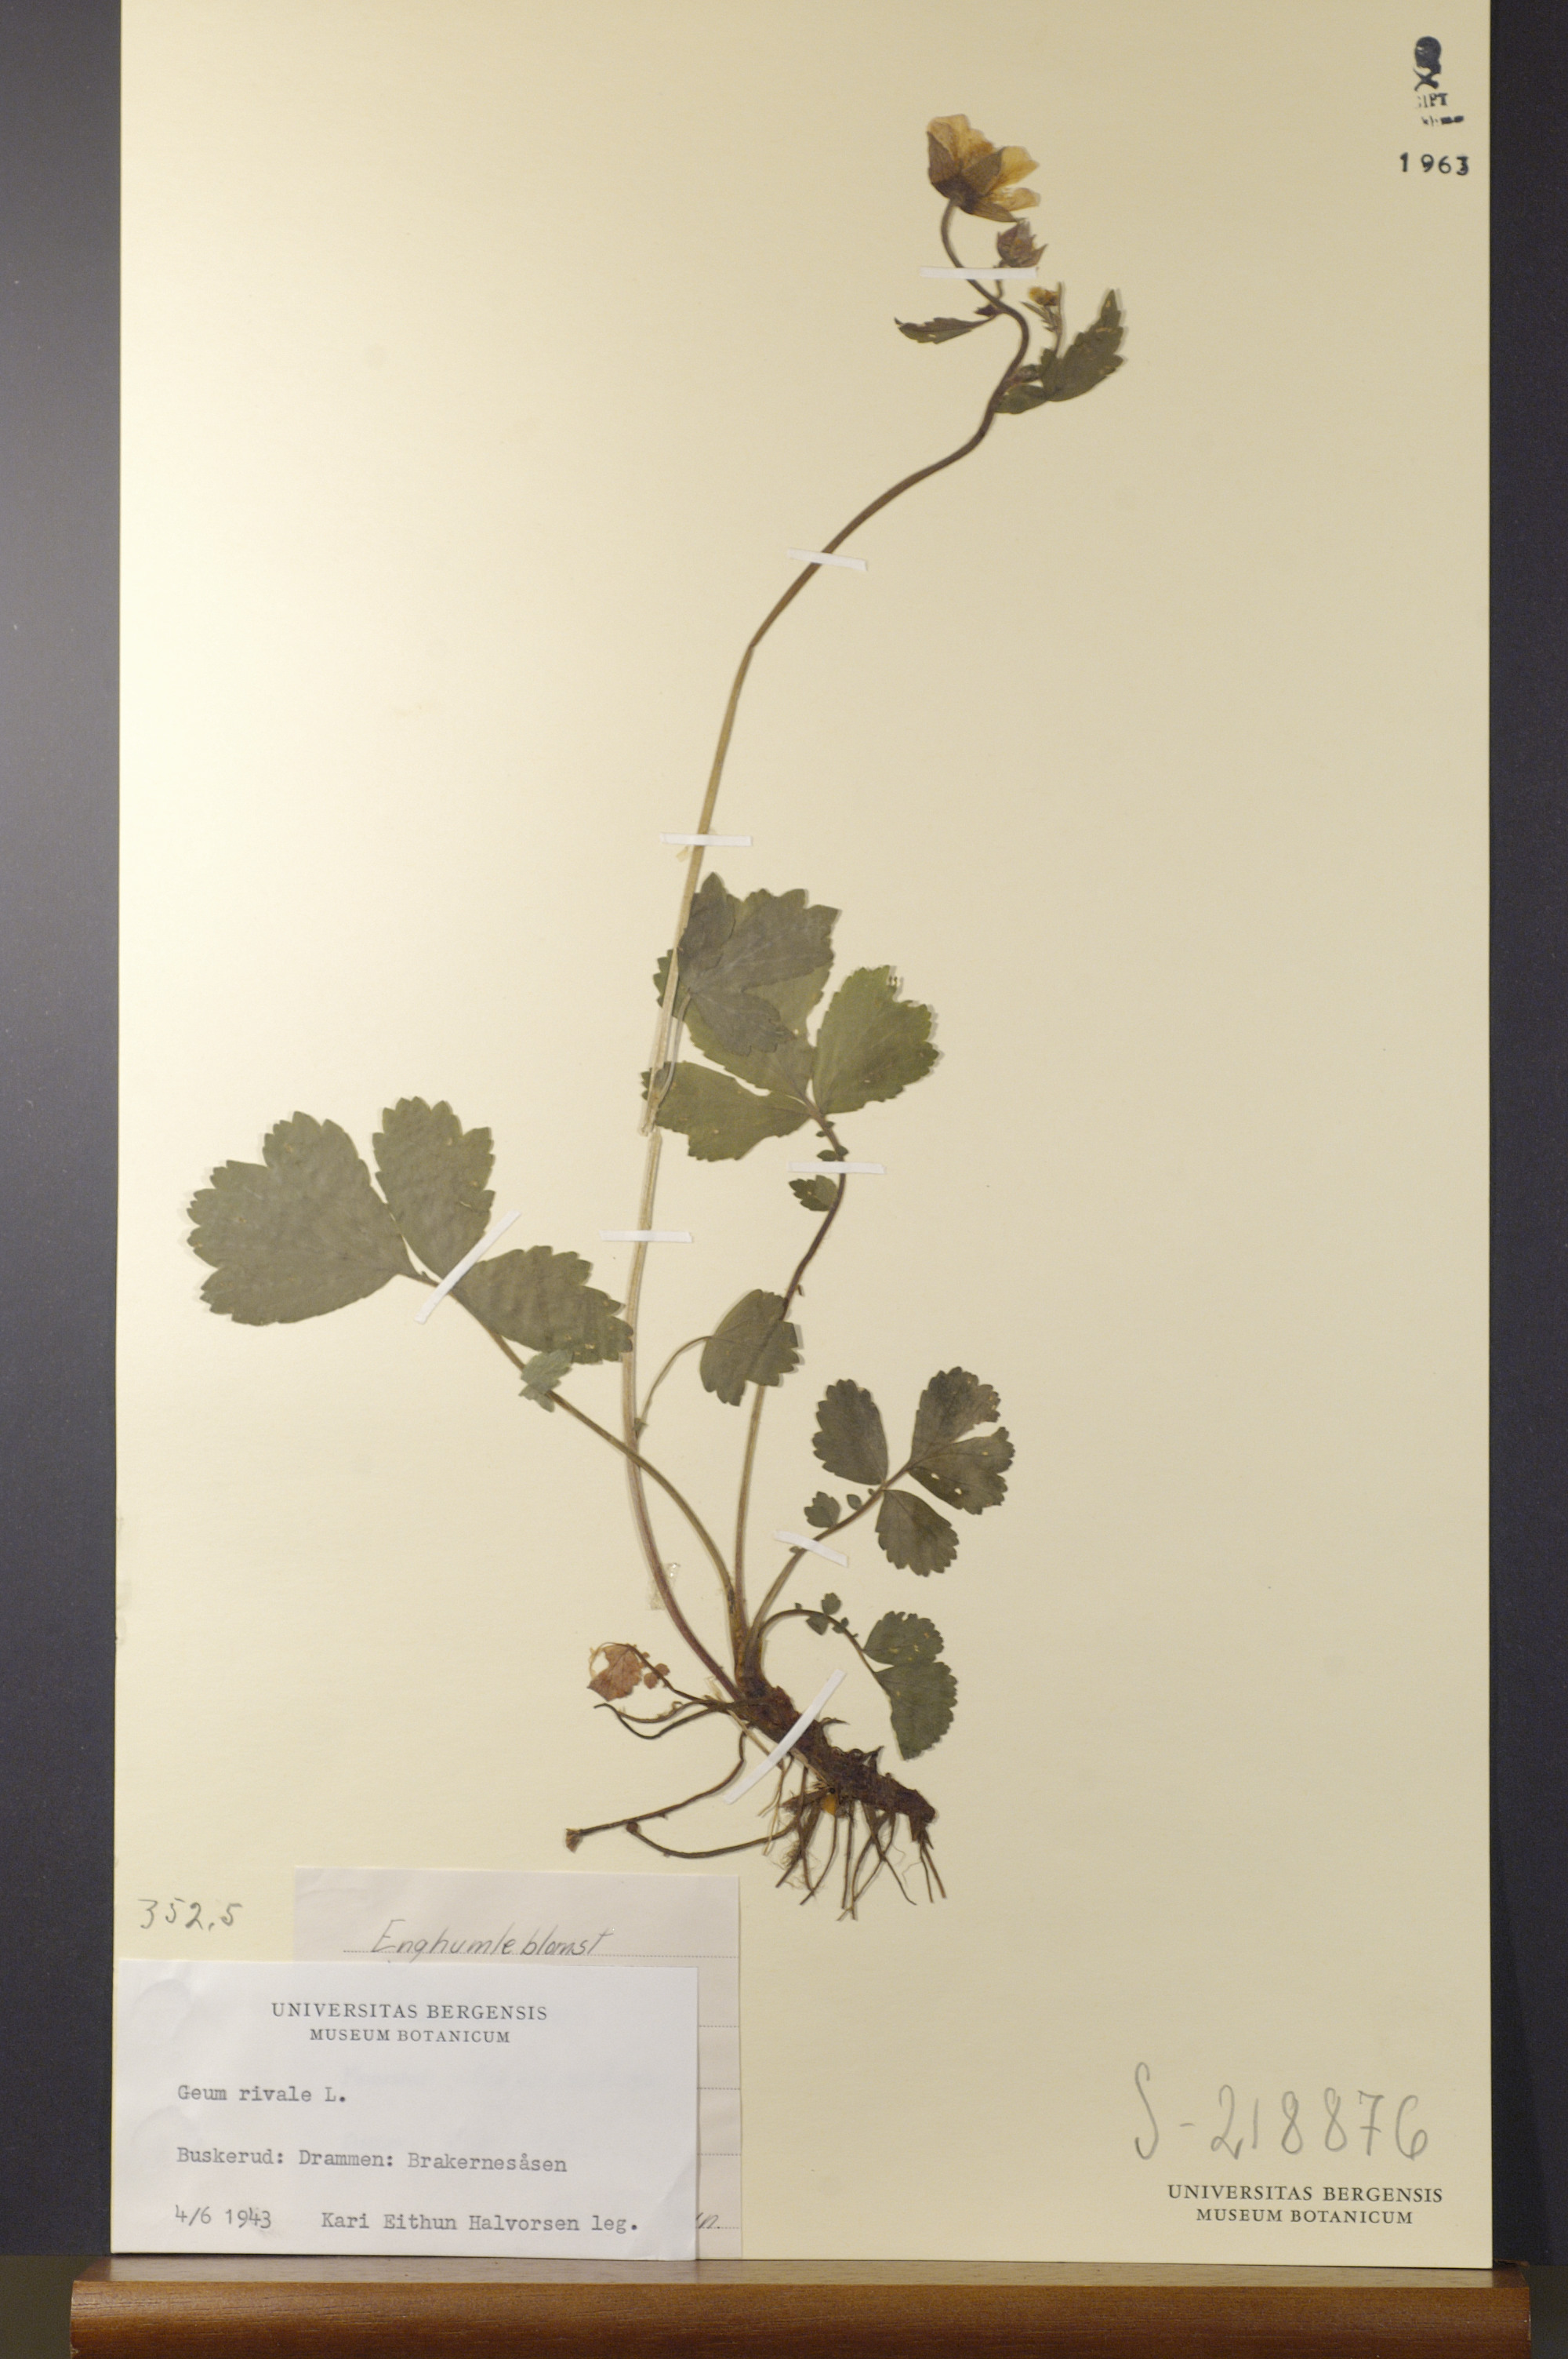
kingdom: Plantae
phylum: Tracheophyta
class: Magnoliopsida
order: Rosales
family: Rosaceae
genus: Geum
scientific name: Geum rivale
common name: Water avens
